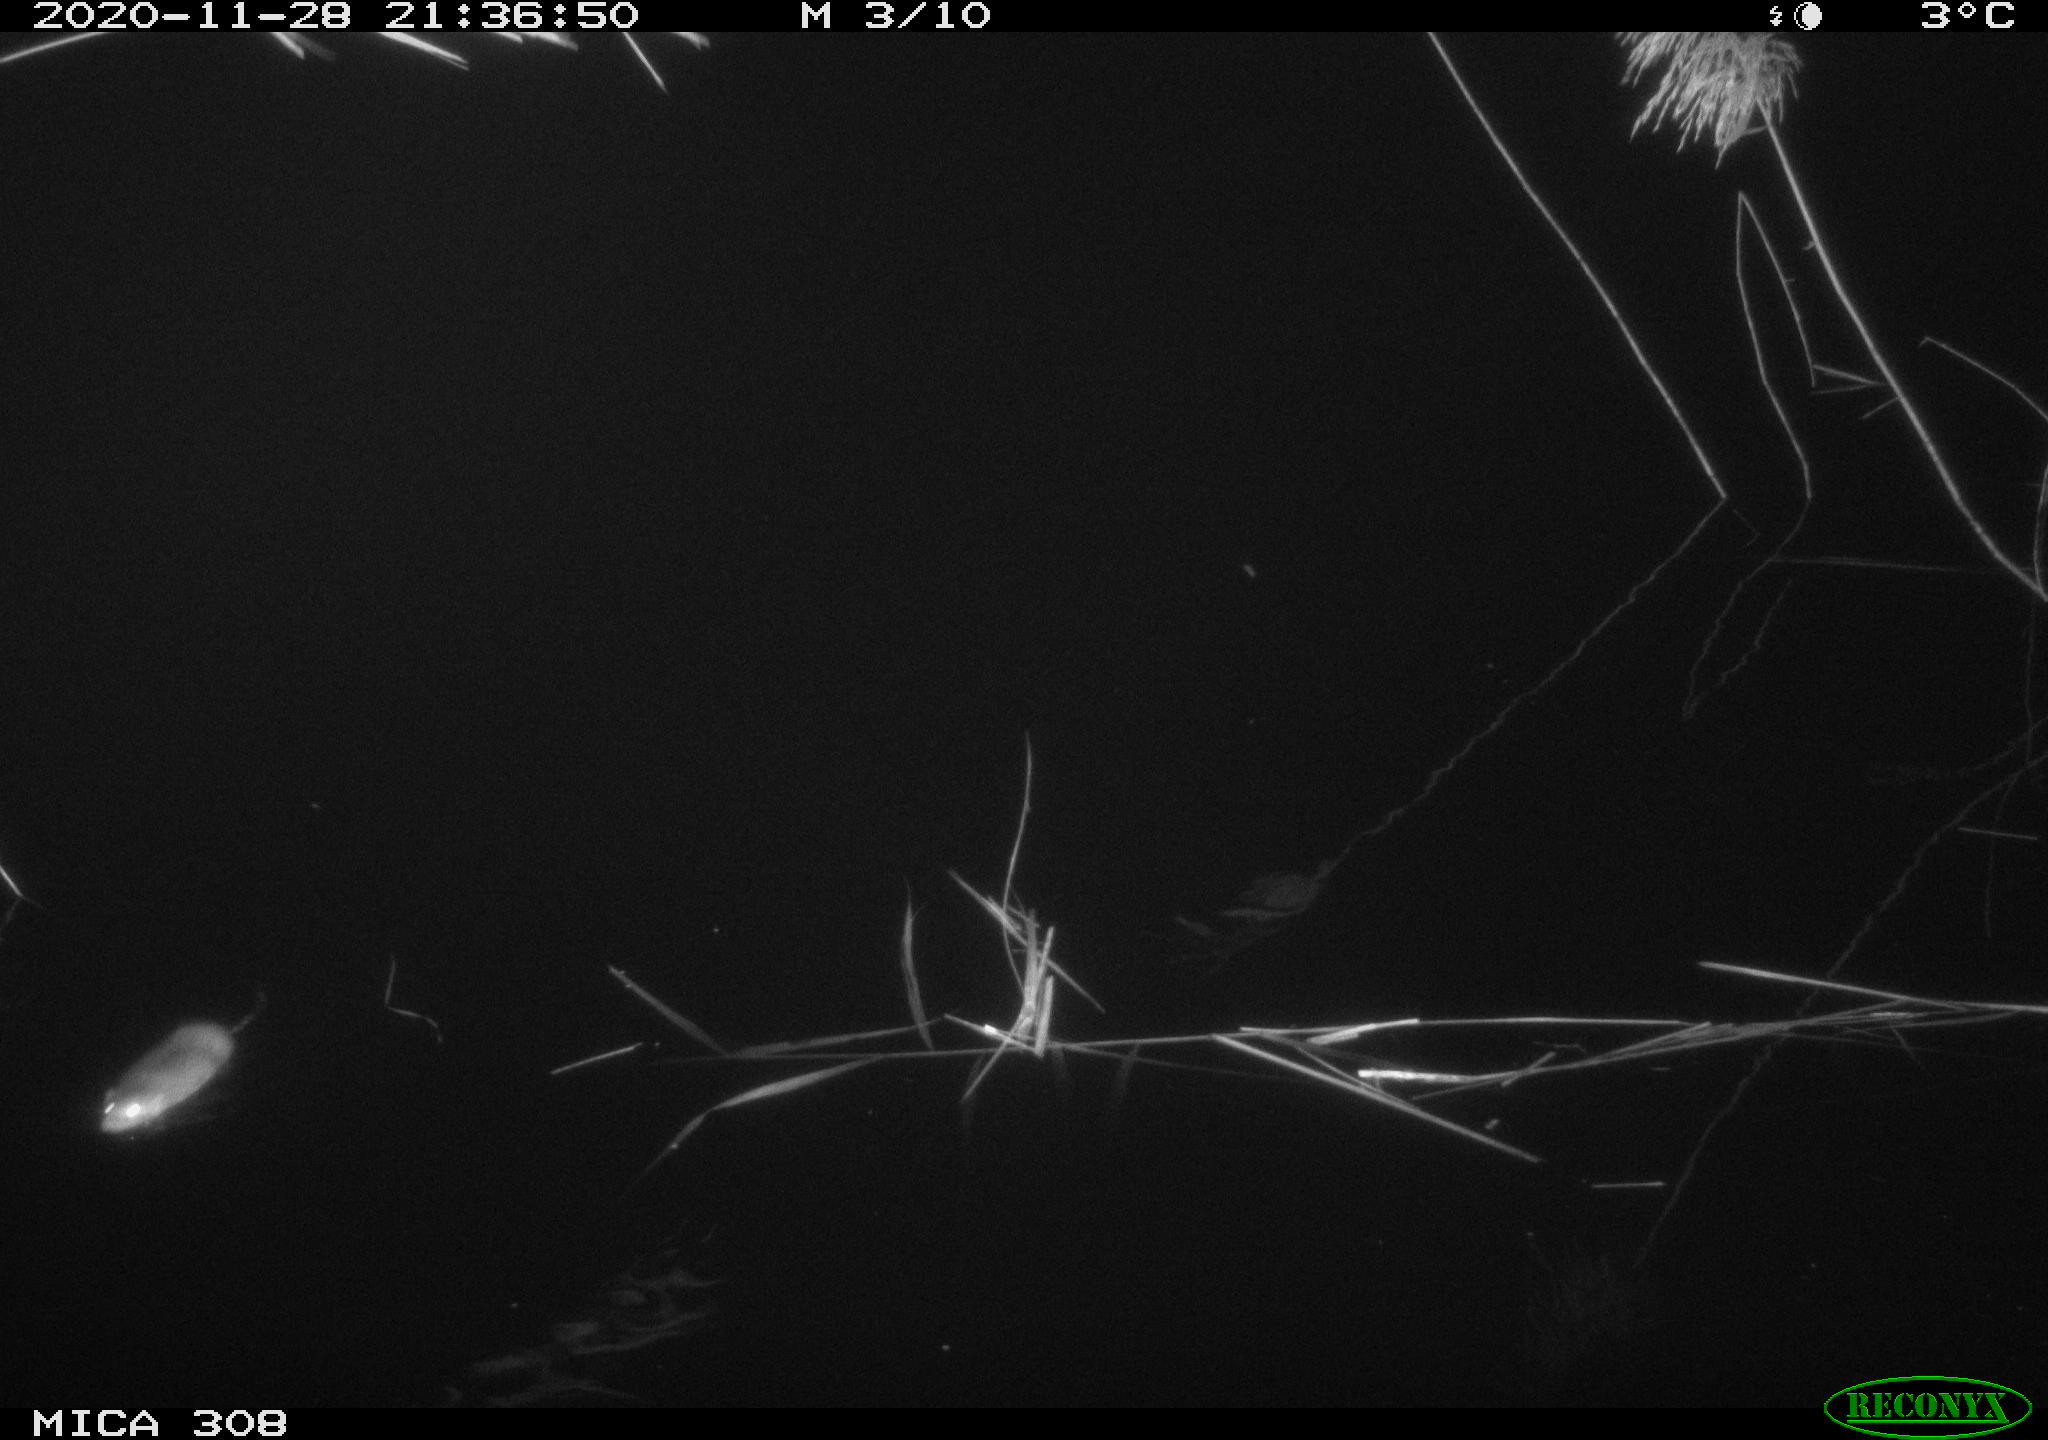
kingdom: Animalia
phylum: Chordata
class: Mammalia
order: Rodentia
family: Muridae
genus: Rattus
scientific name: Rattus norvegicus
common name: Brown rat
